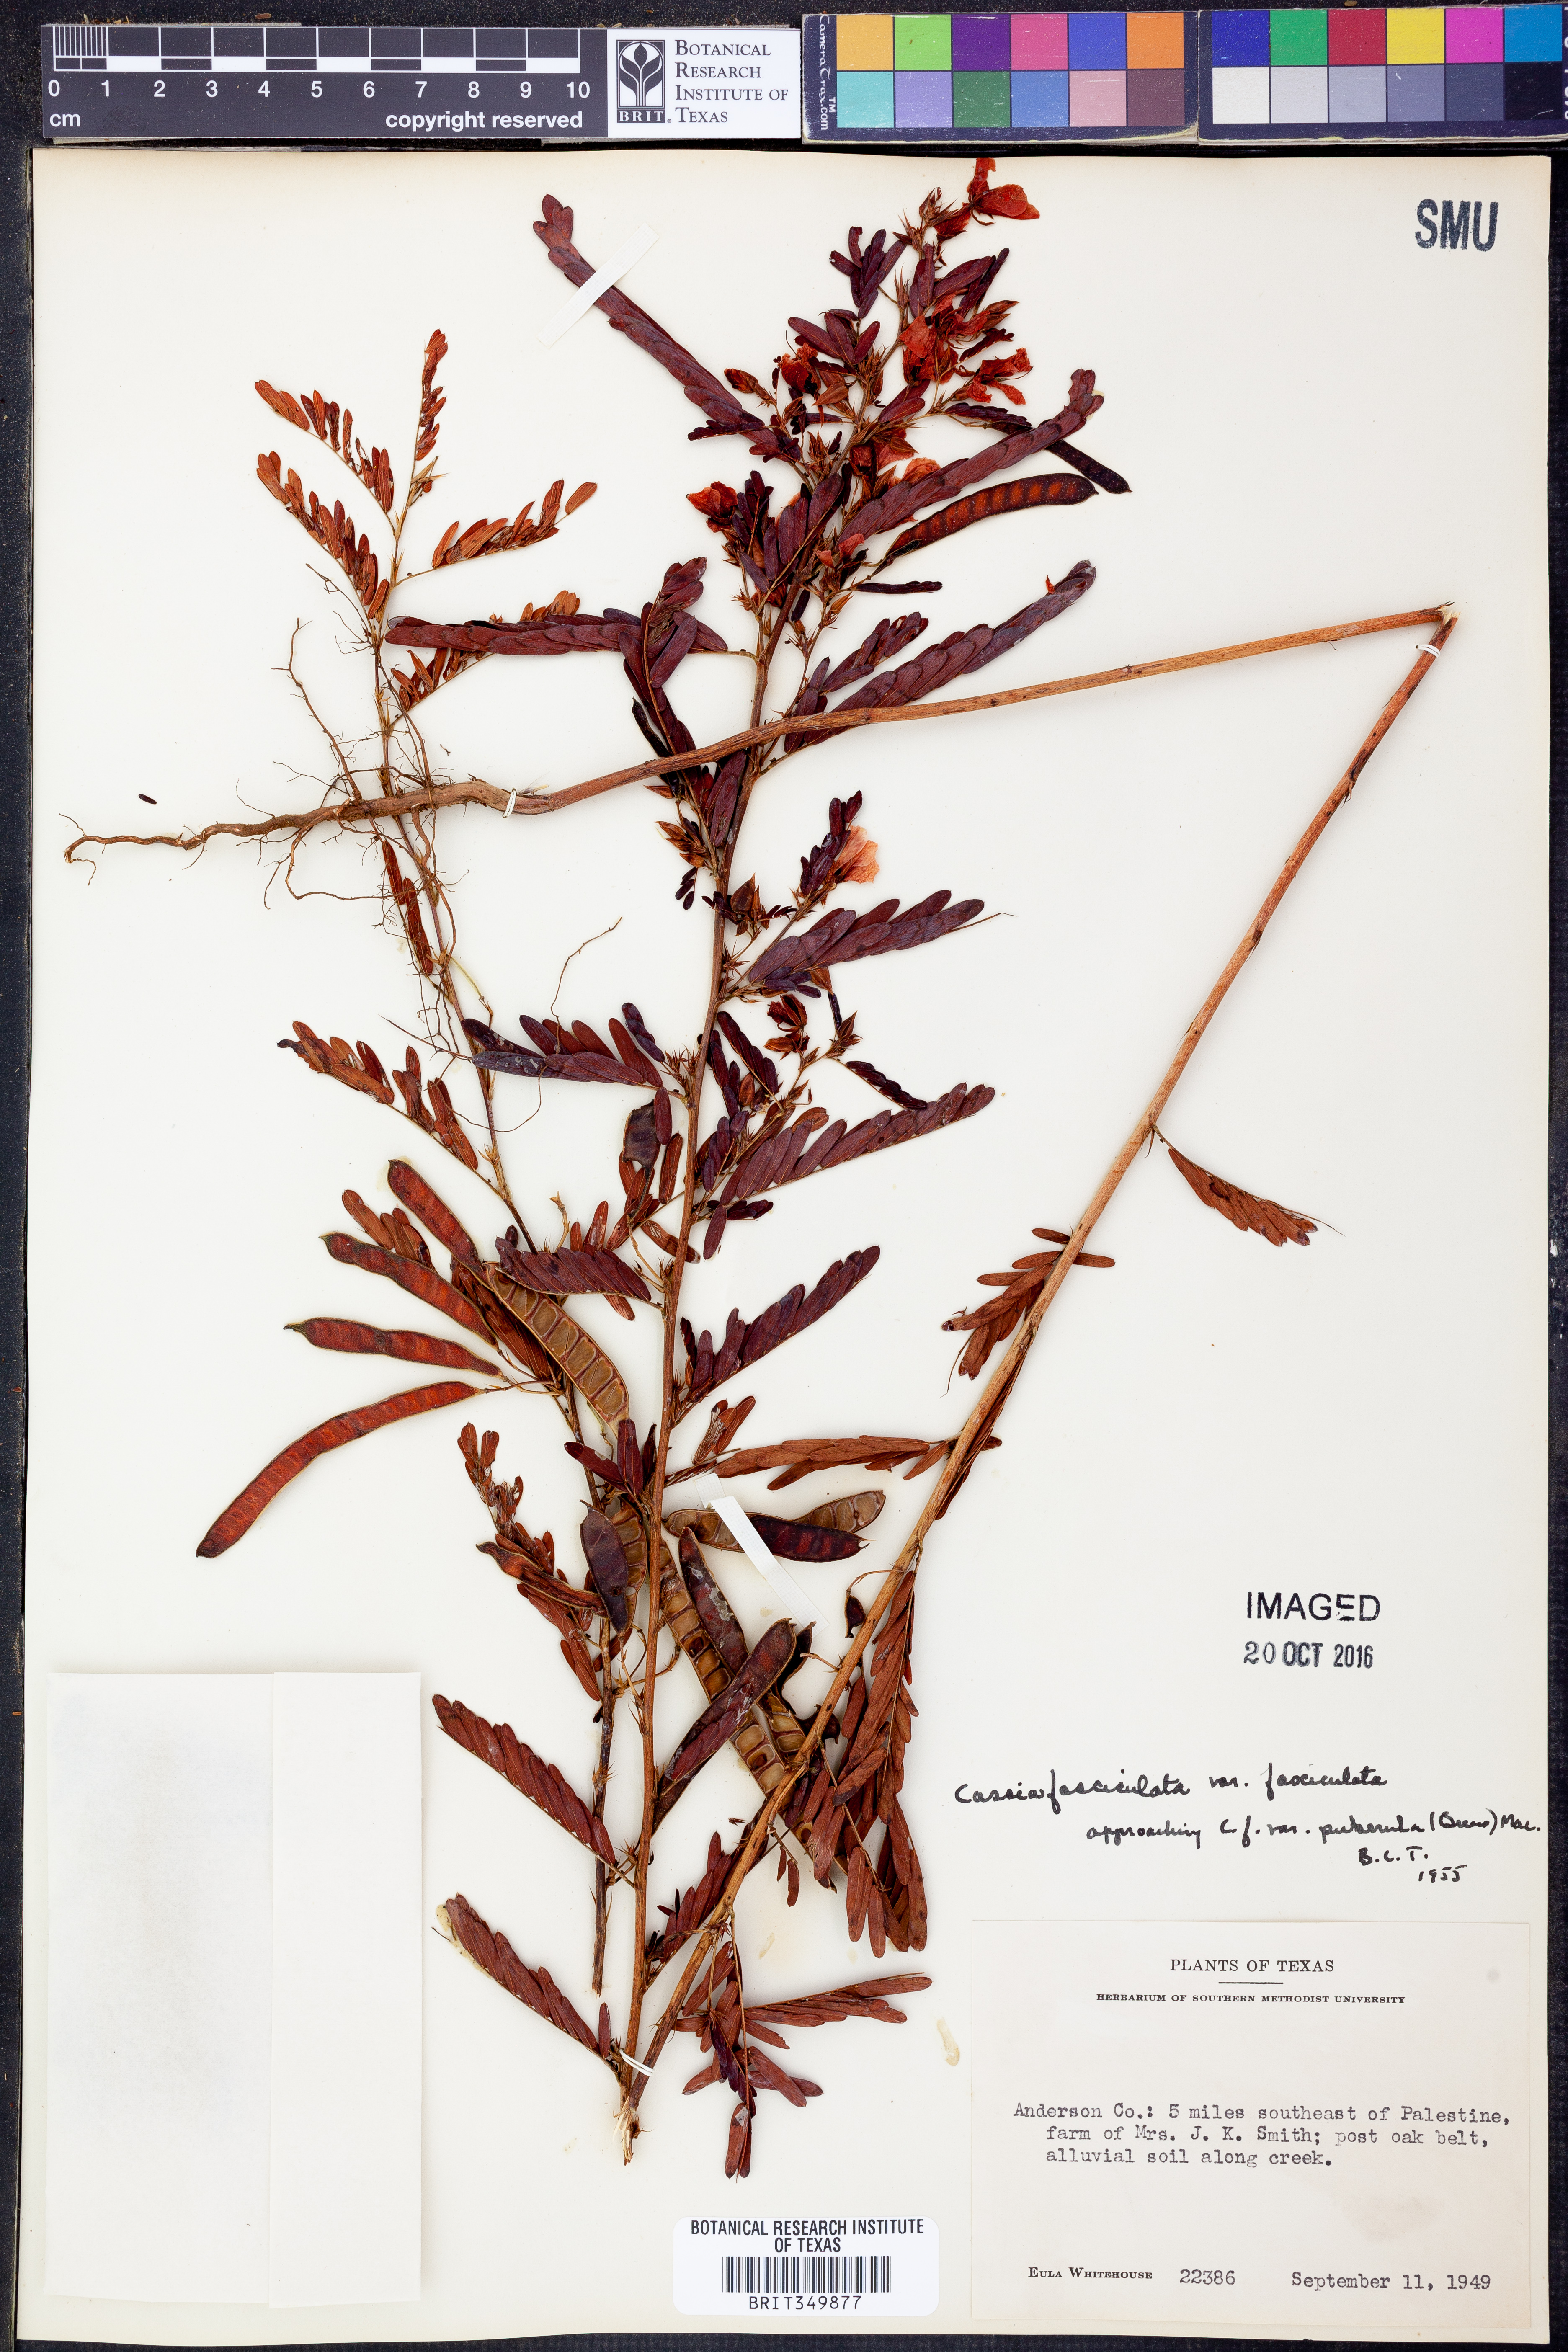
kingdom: Plantae
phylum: Tracheophyta
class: Magnoliopsida
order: Fabales
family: Fabaceae
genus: Chamaecrista
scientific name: Chamaecrista fasciculata
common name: Golden cassia
